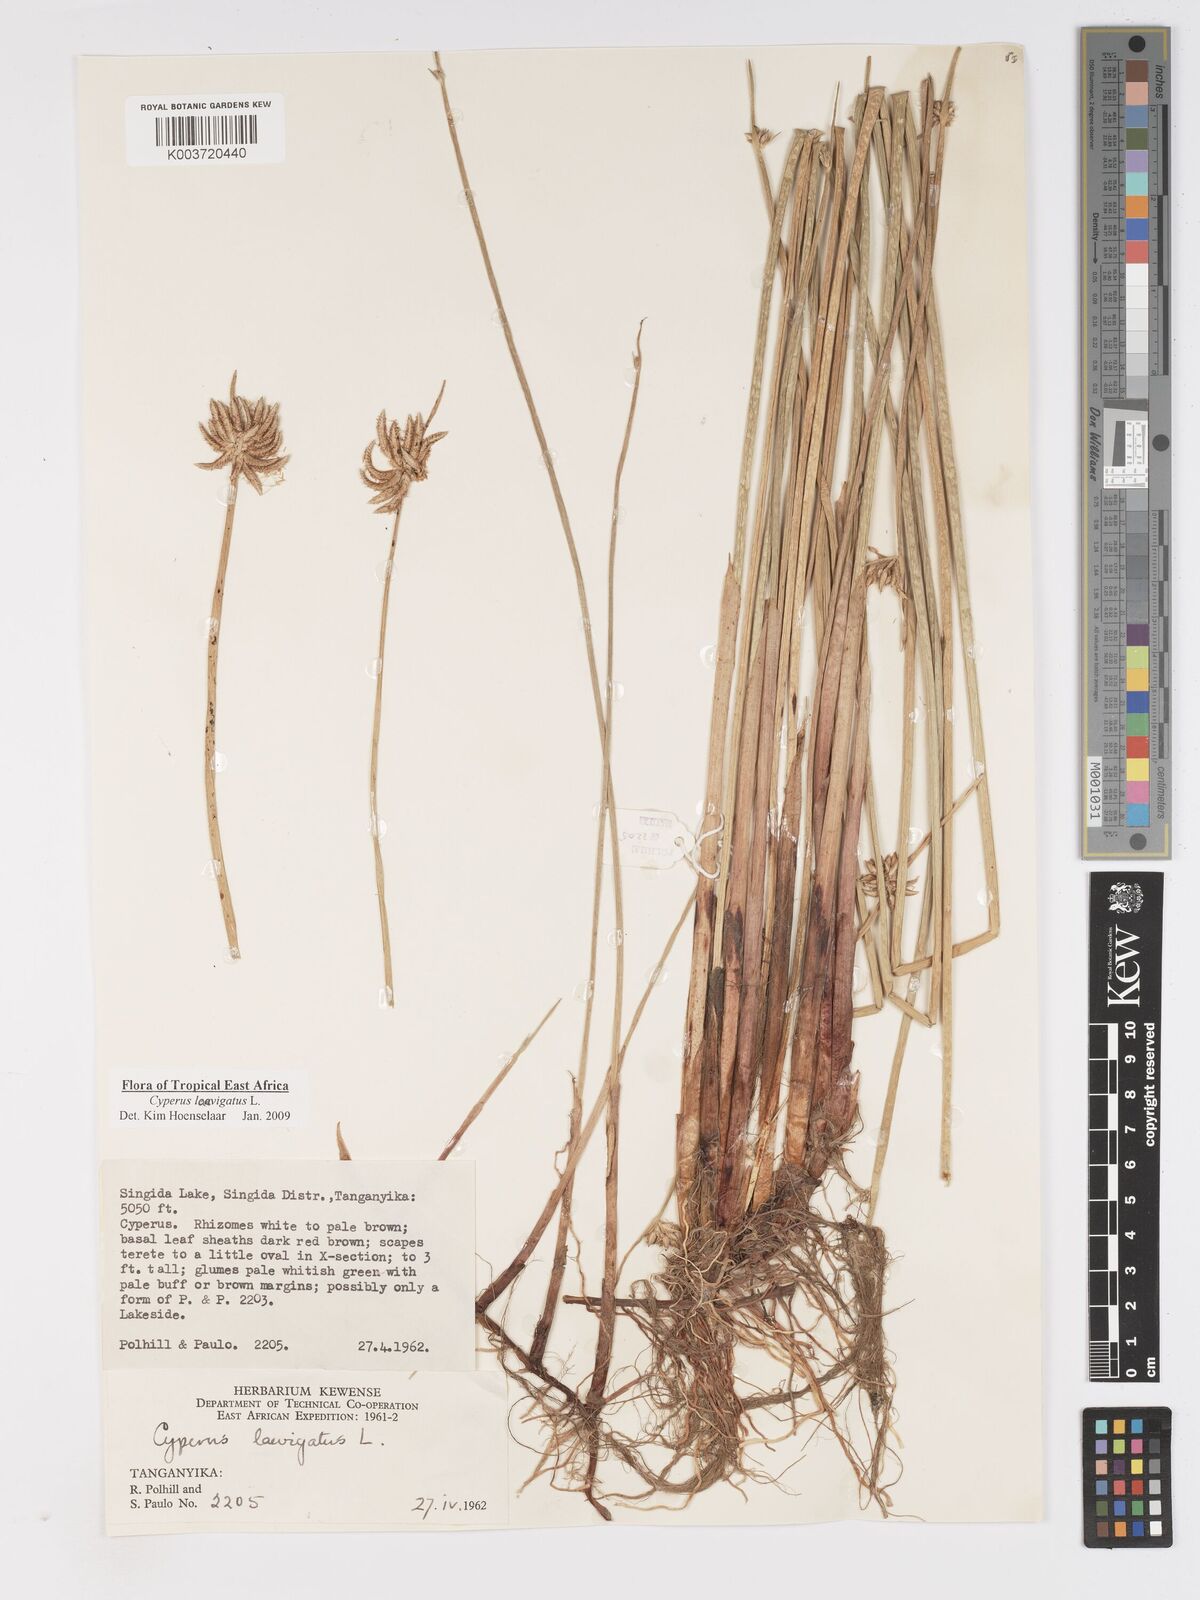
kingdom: Plantae
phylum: Tracheophyta
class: Liliopsida
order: Poales
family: Cyperaceae
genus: Cyperus
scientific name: Cyperus laevigatus
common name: Smooth flat sedge
